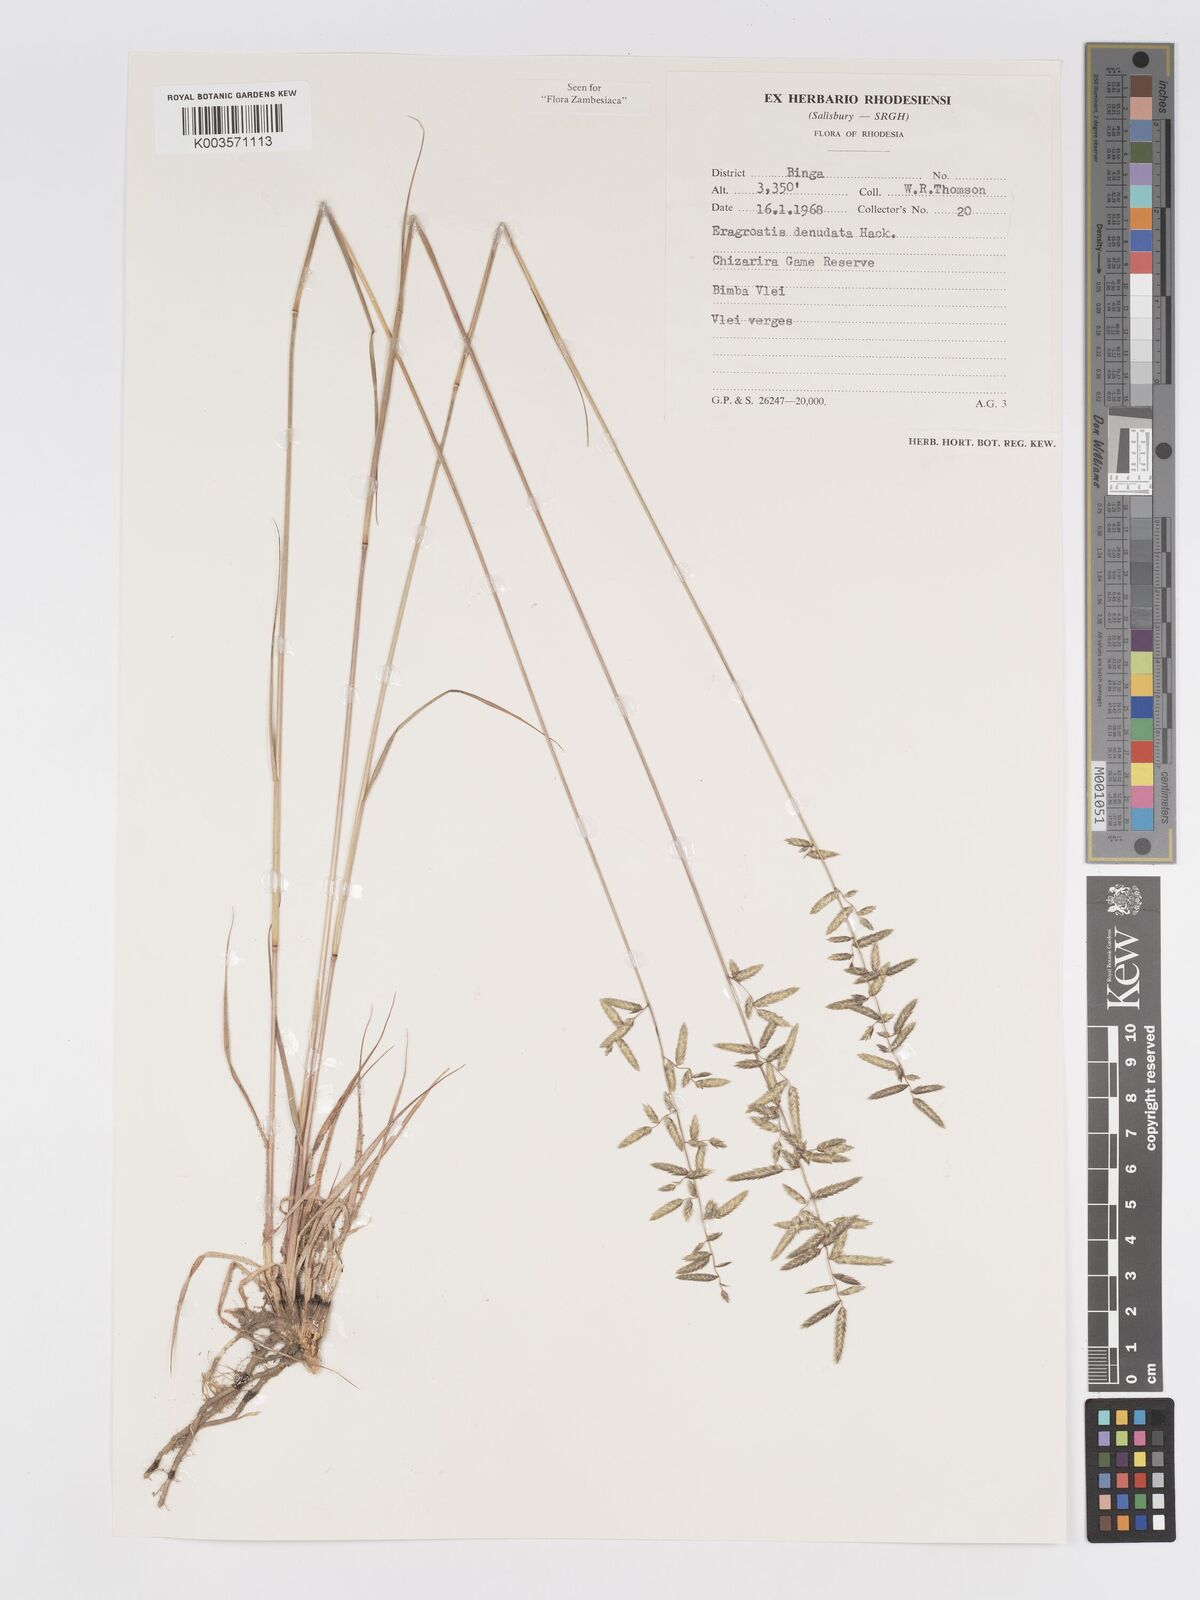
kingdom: Plantae
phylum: Tracheophyta
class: Liliopsida
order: Poales
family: Poaceae
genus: Eragrostis
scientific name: Eragrostis nindensis
